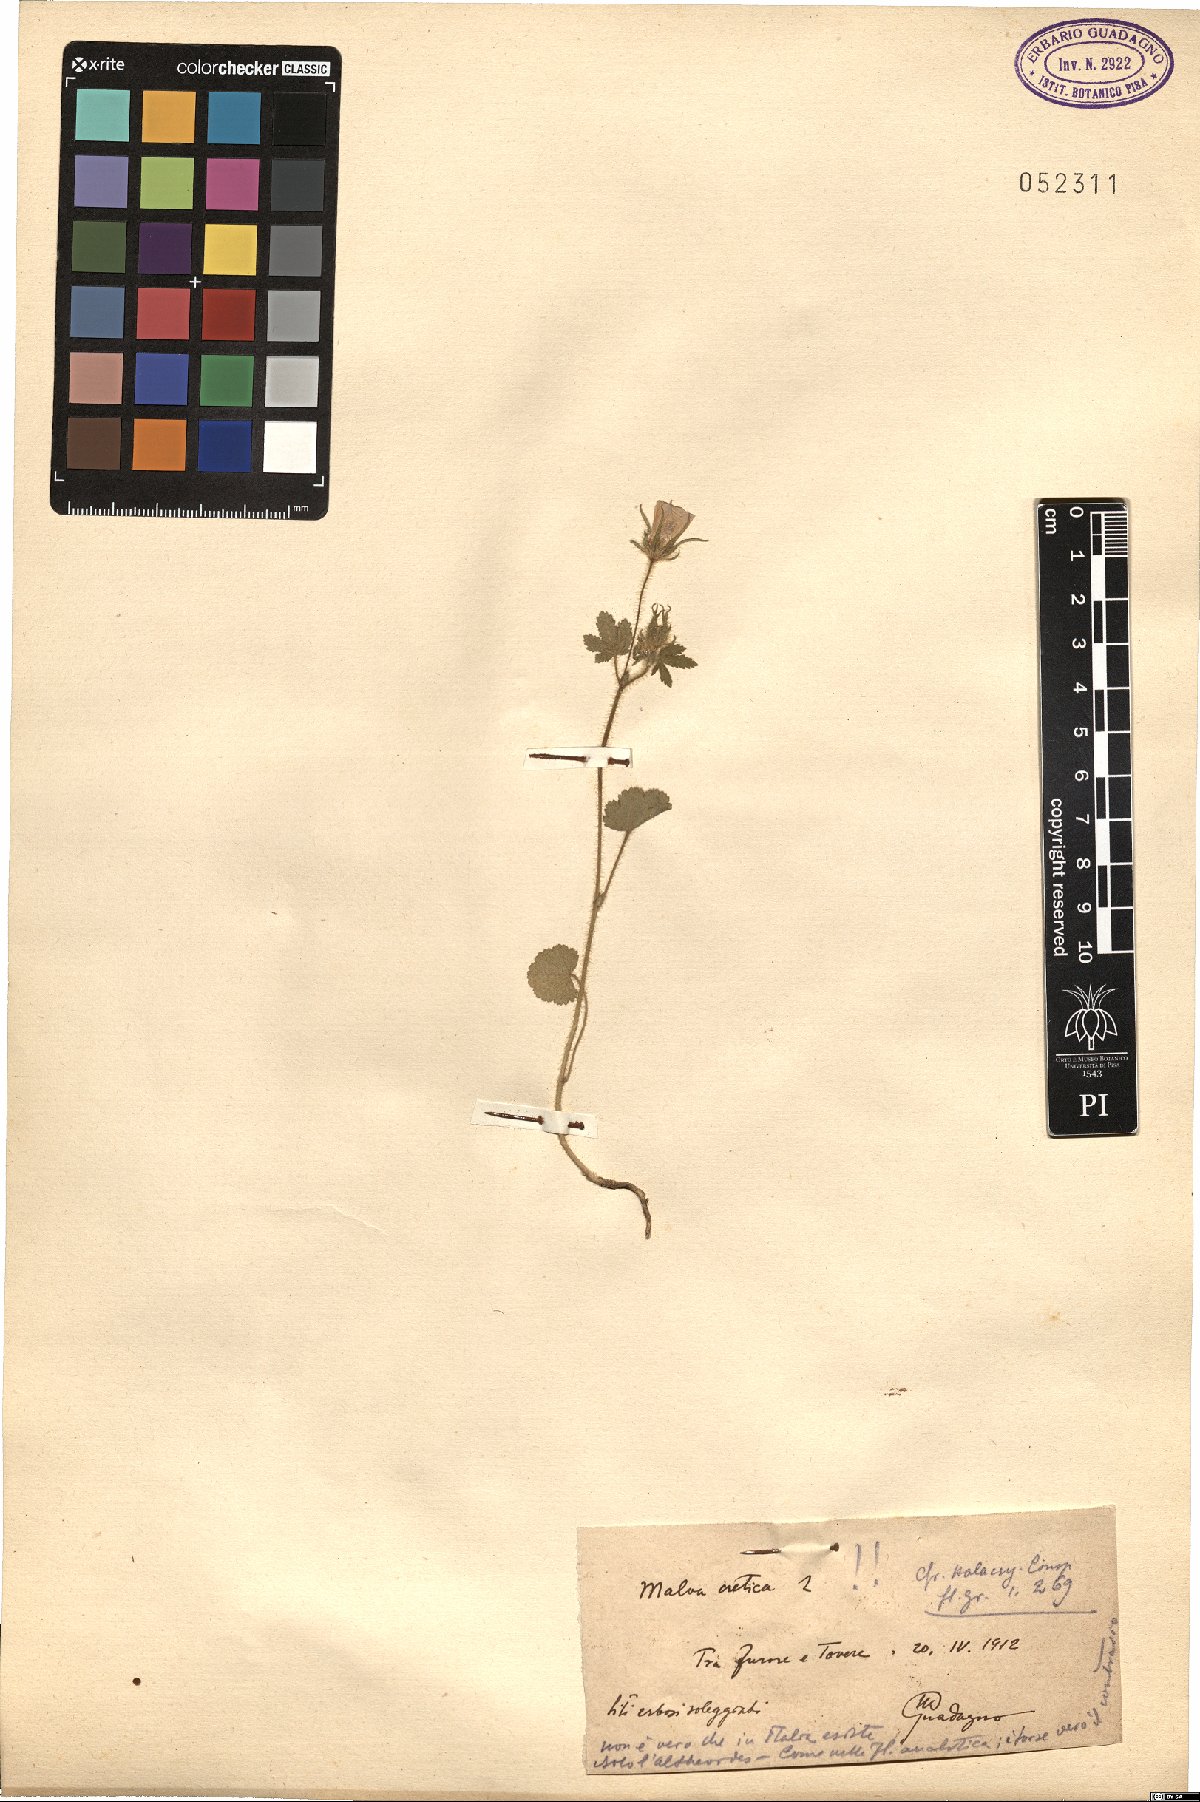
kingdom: Plantae
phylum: Tracheophyta
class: Magnoliopsida
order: Malvales
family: Malvaceae
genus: Malva
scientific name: Malva cretica
